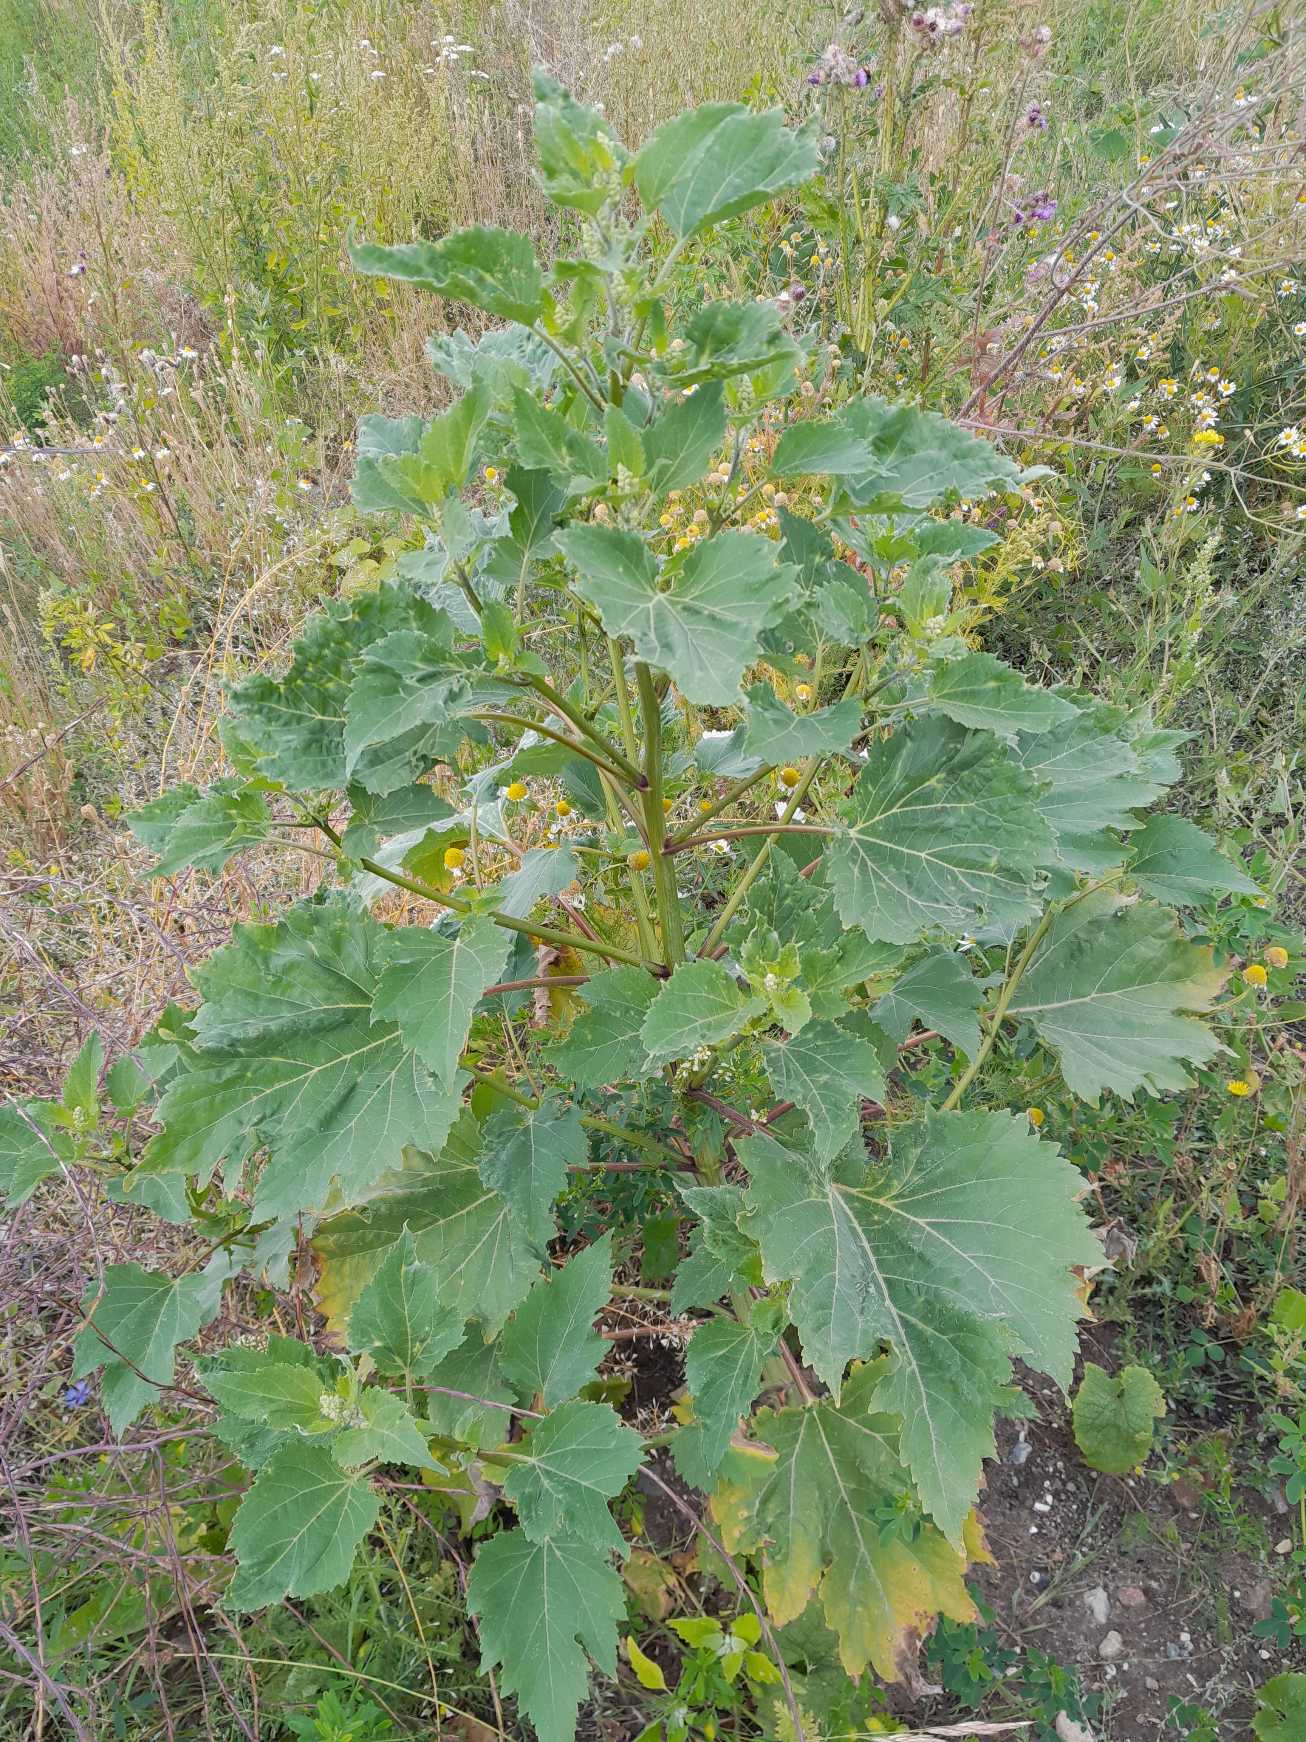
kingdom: Plantae
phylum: Tracheophyta
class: Magnoliopsida
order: Asterales
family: Asteraceae
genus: Cyclachaena
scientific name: Cyclachaena xanthiifolia
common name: Klaseurt
